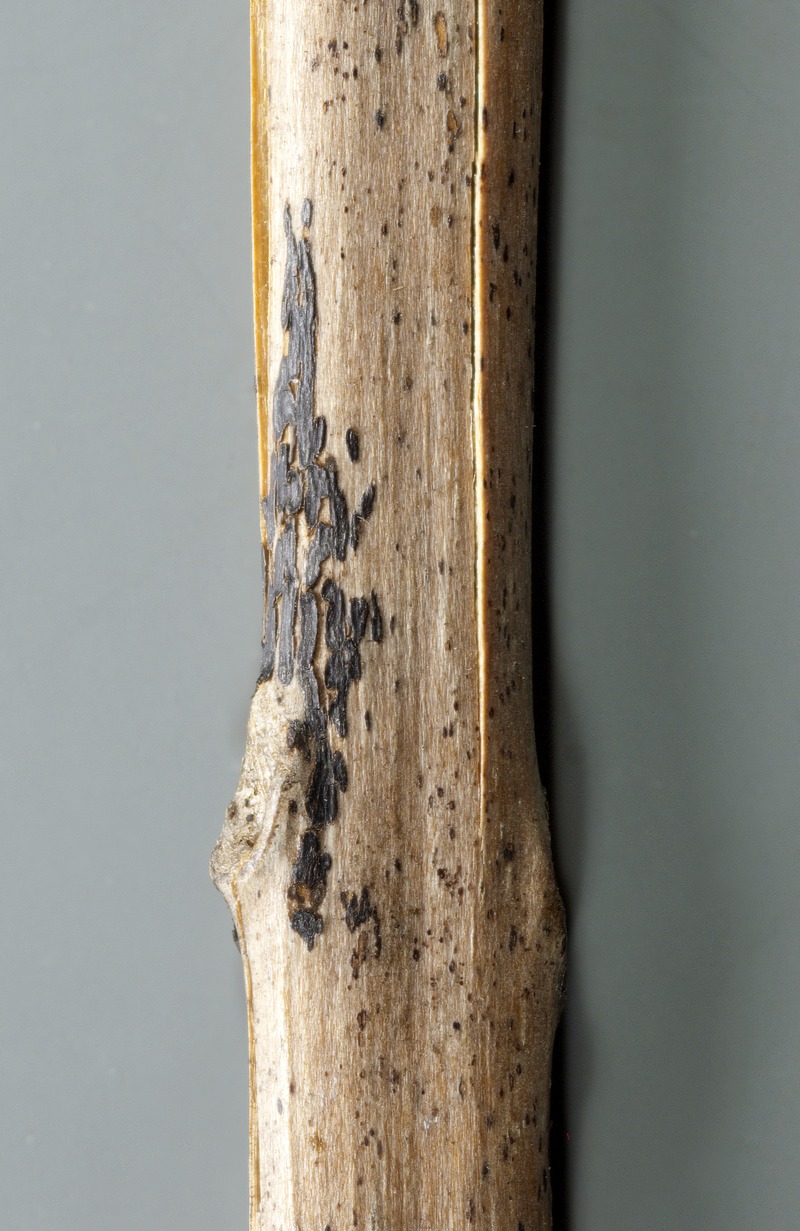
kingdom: Fungi
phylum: Ascomycota
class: Sordariomycetes
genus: Cryptomycina
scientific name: Cryptomycina filicina
